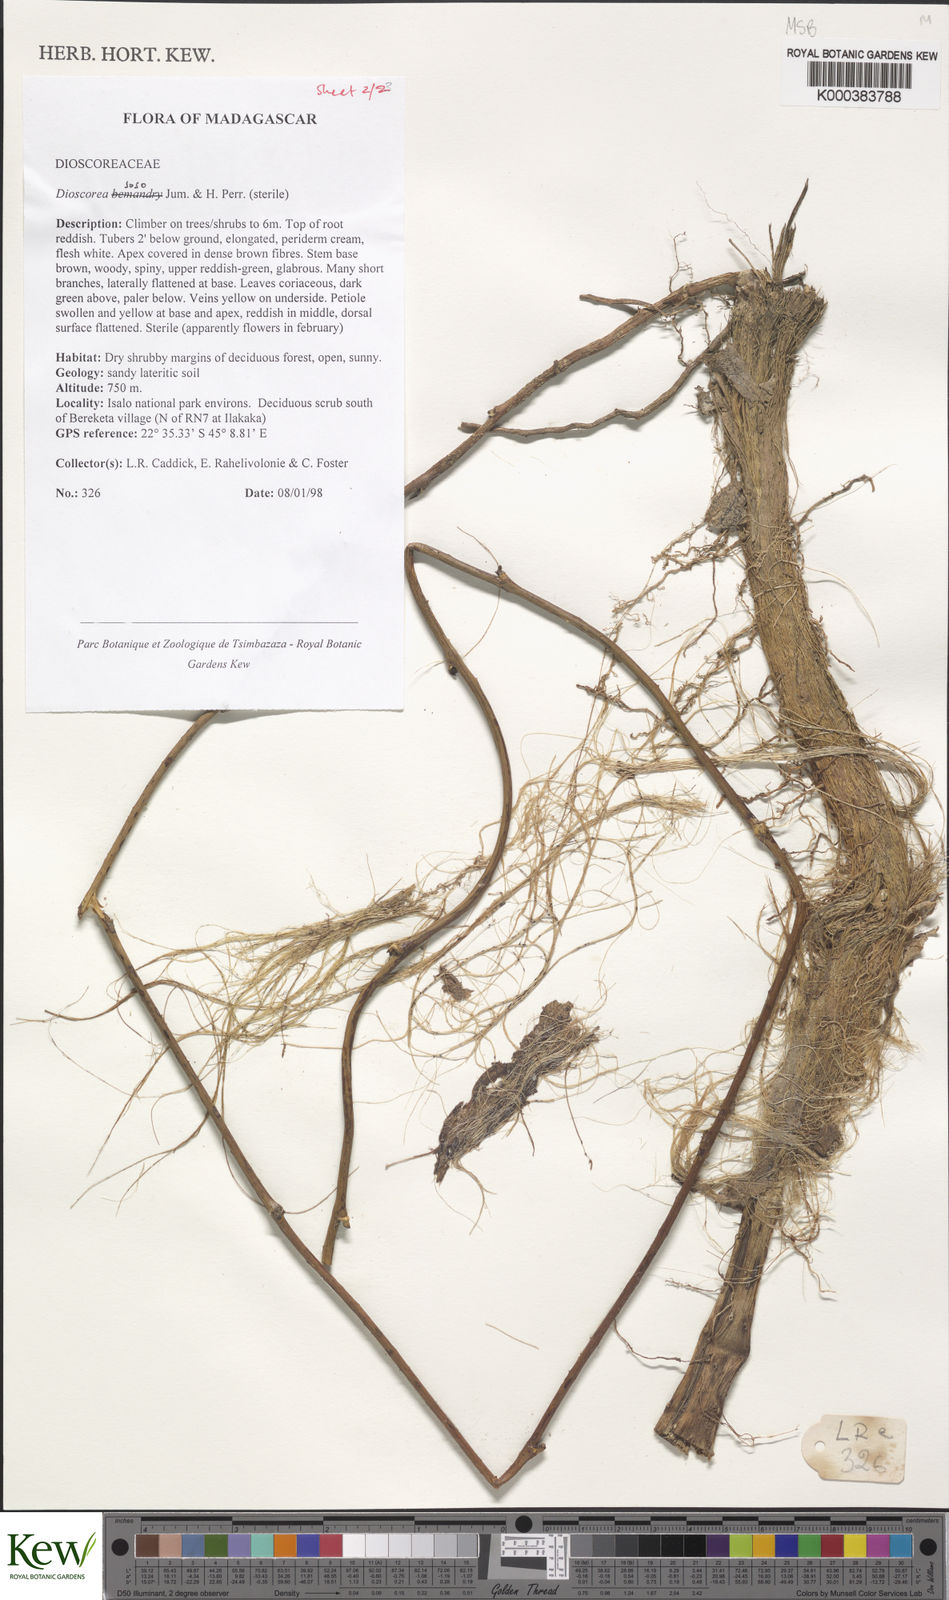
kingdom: Plantae
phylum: Tracheophyta
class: Liliopsida
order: Dioscoreales
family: Dioscoreaceae
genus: Dioscorea
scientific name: Dioscorea
